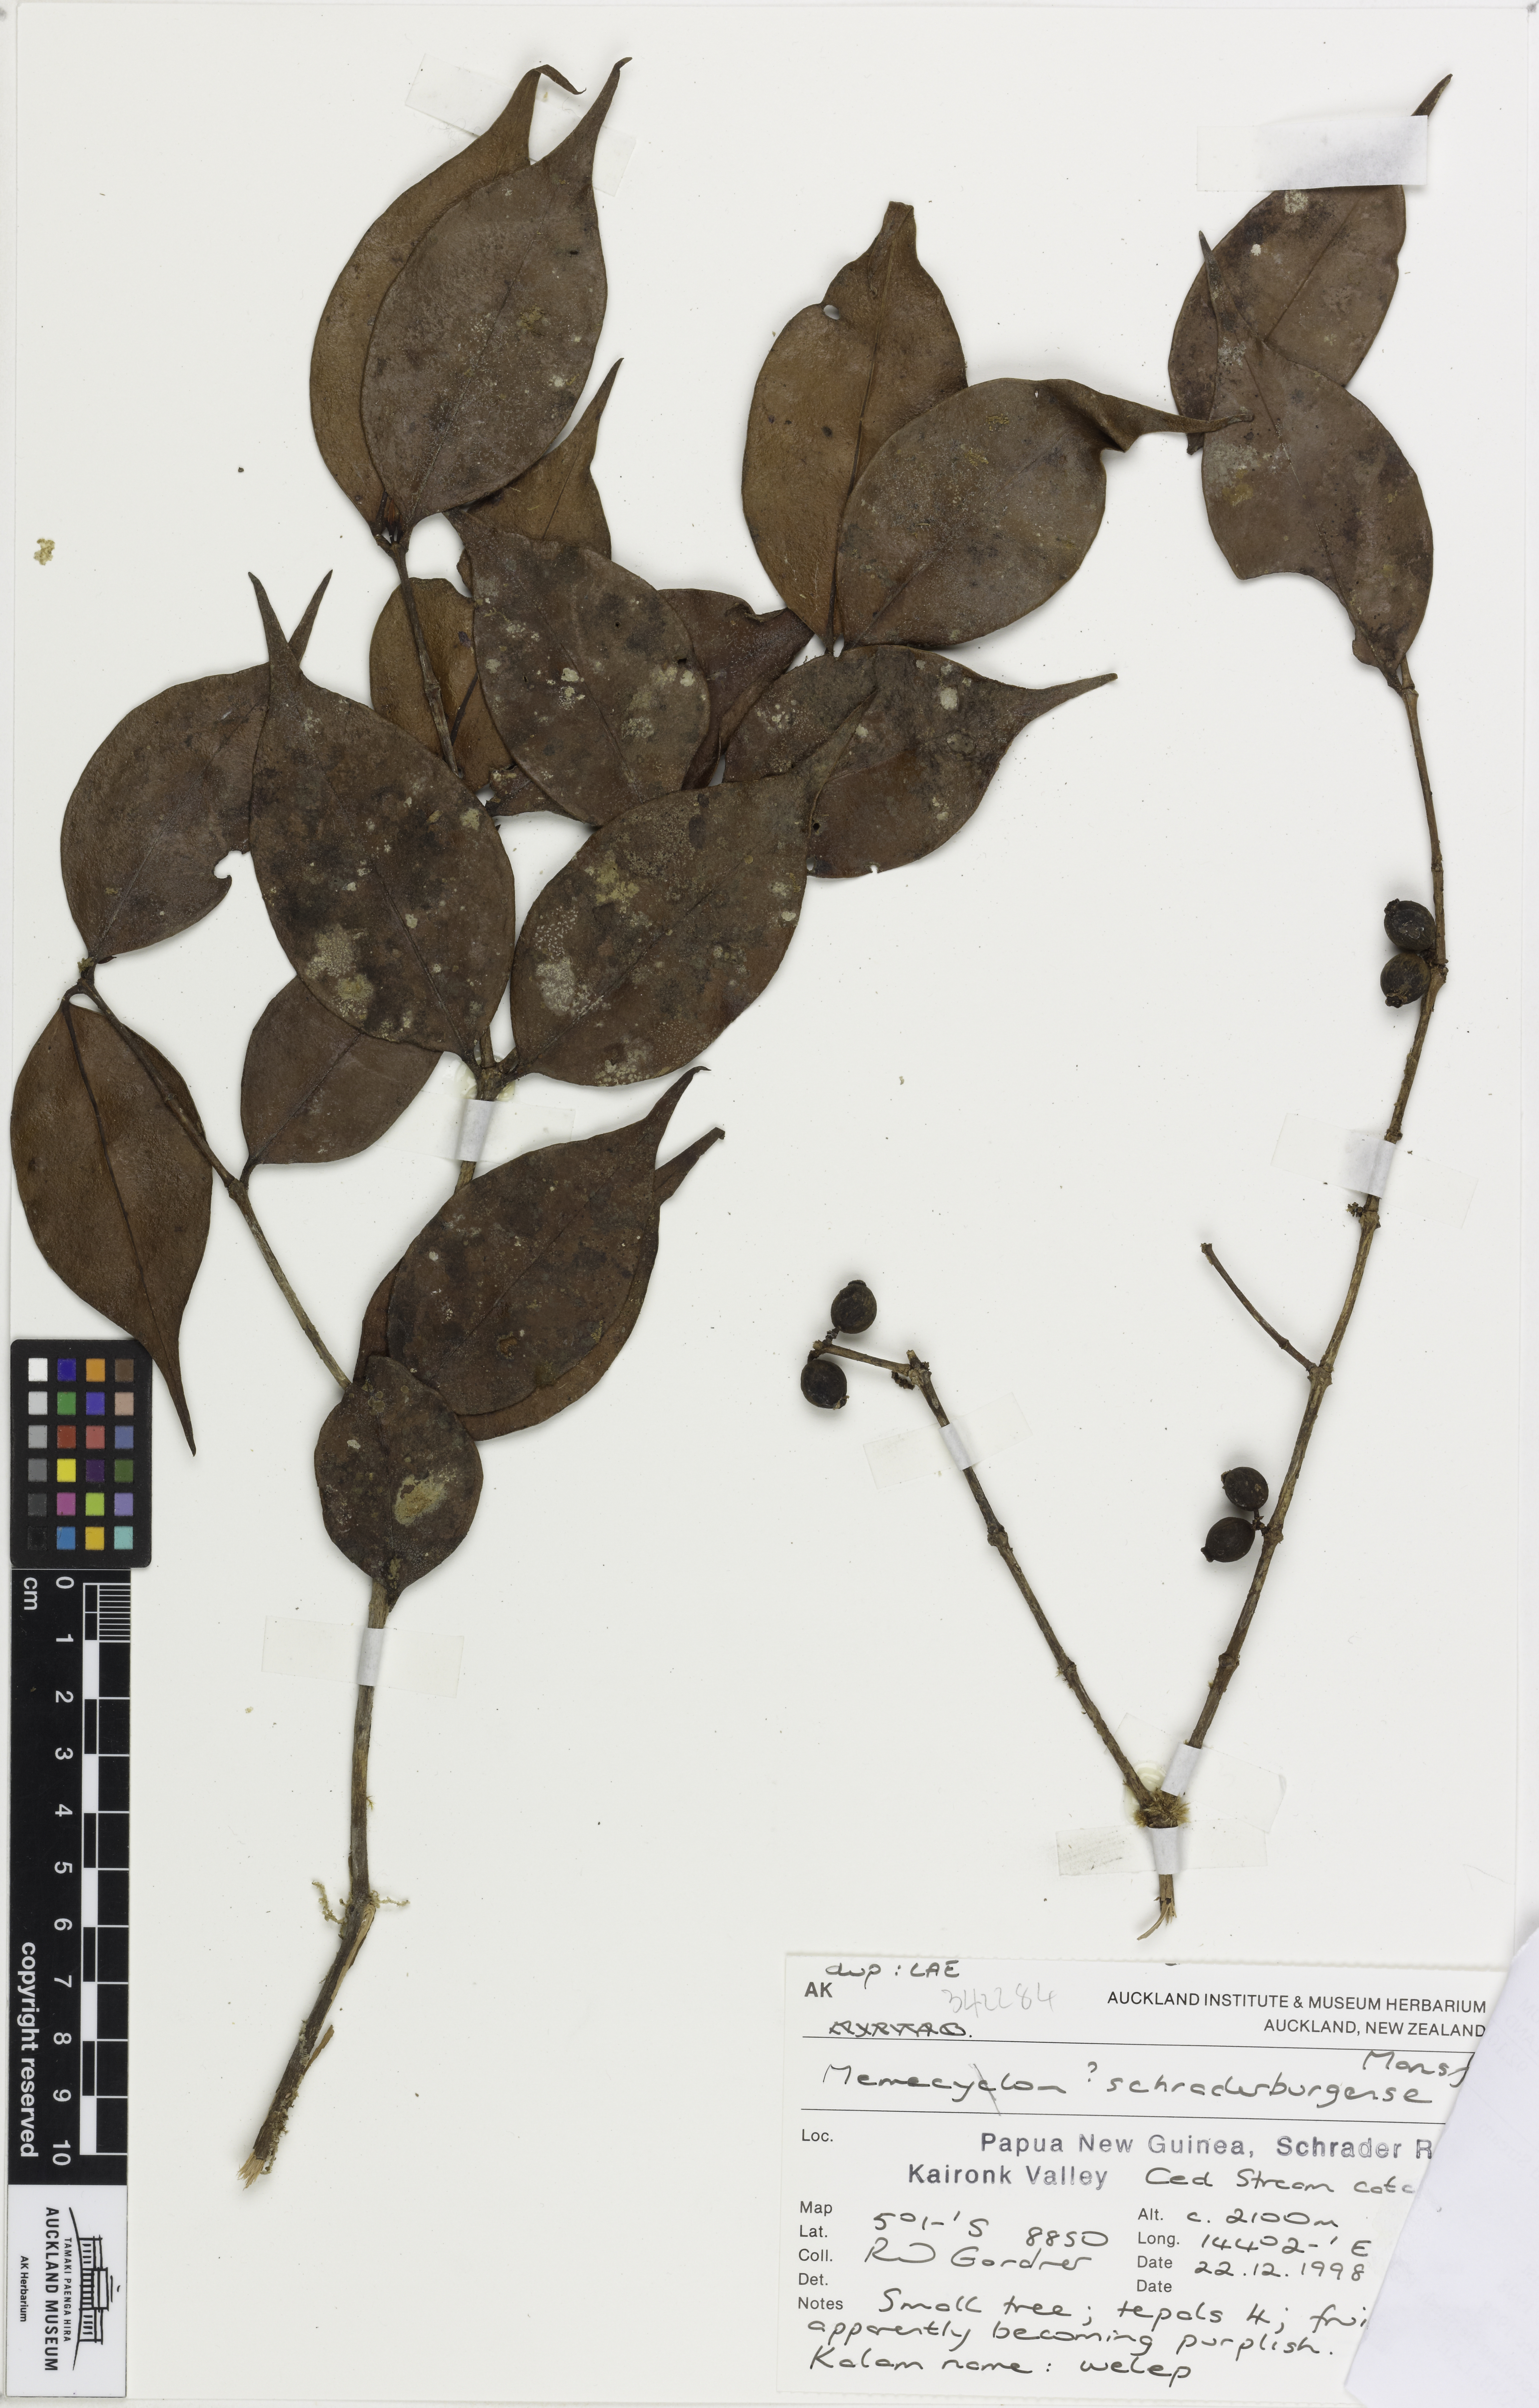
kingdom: Plantae
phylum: Tracheophyta
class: Magnoliopsida
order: Myrtales
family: Melastomataceae
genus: Memecylon
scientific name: Memecylon schraderbergense
